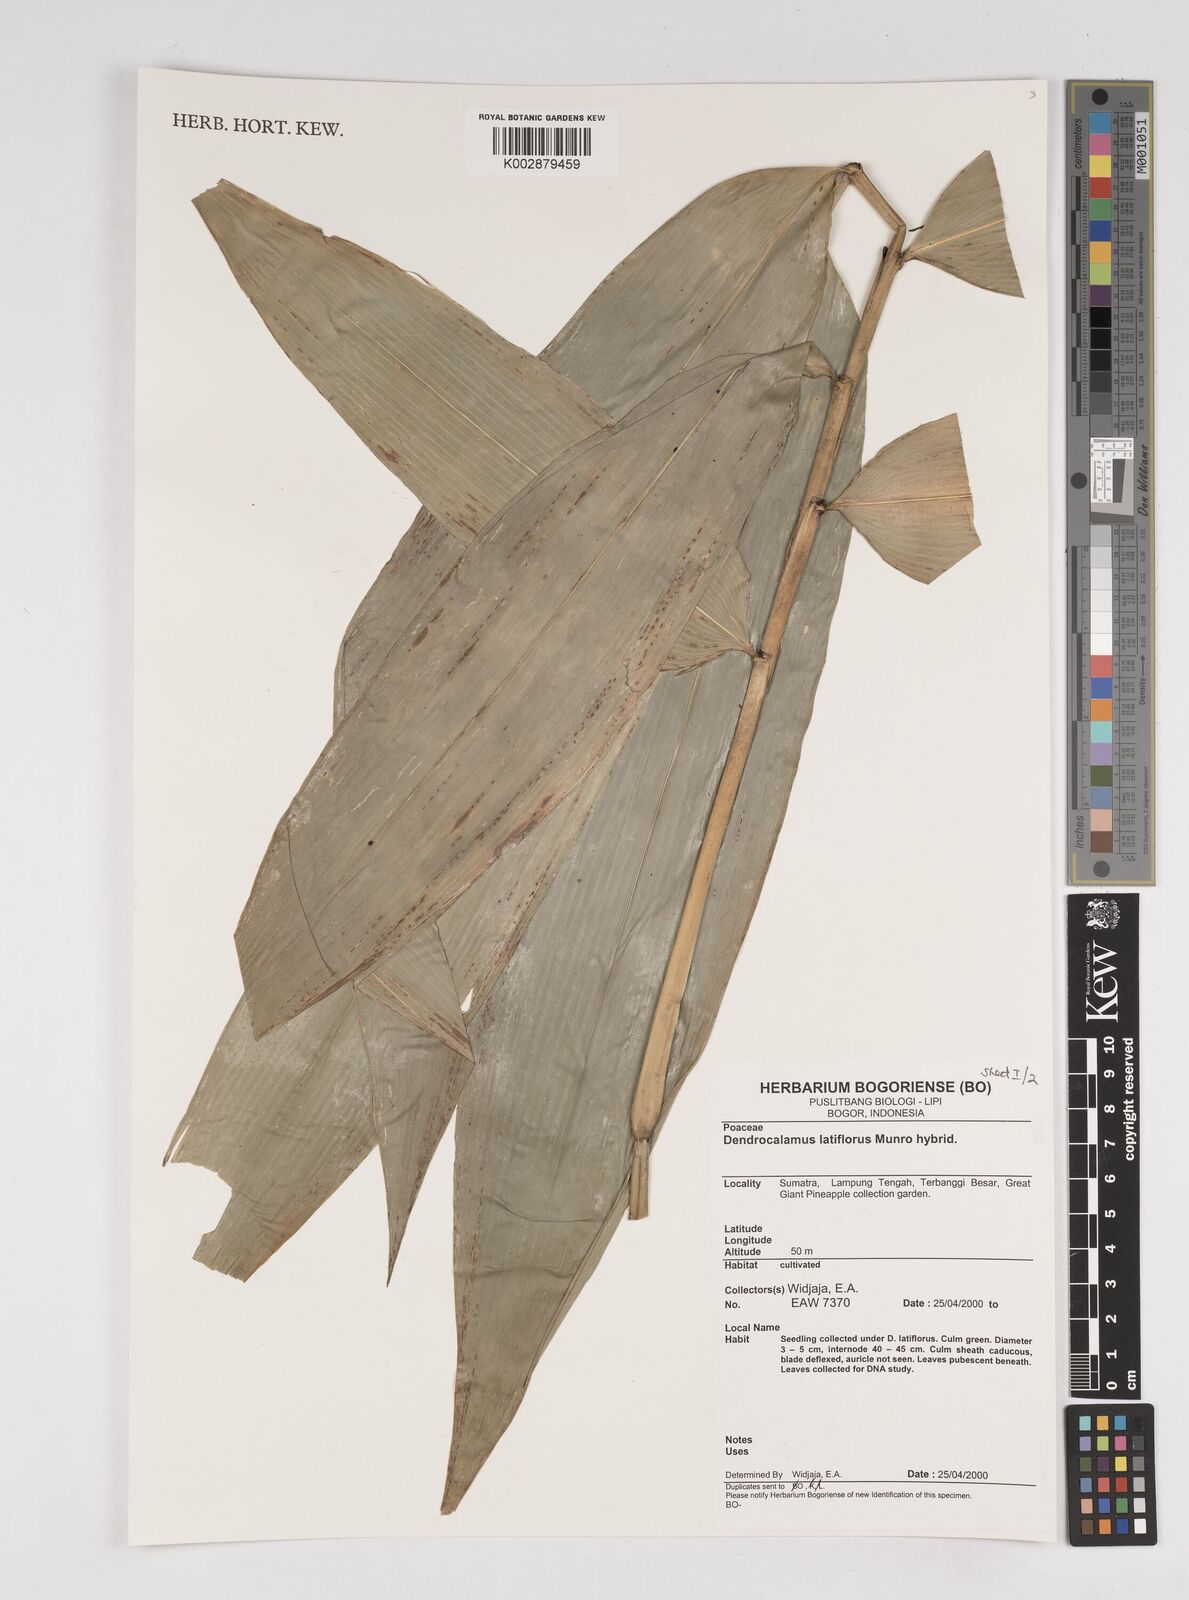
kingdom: Plantae
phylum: Tracheophyta
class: Liliopsida
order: Poales
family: Poaceae
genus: Dendrocalamus
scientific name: Dendrocalamus latiflorus
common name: Giant bamboo
